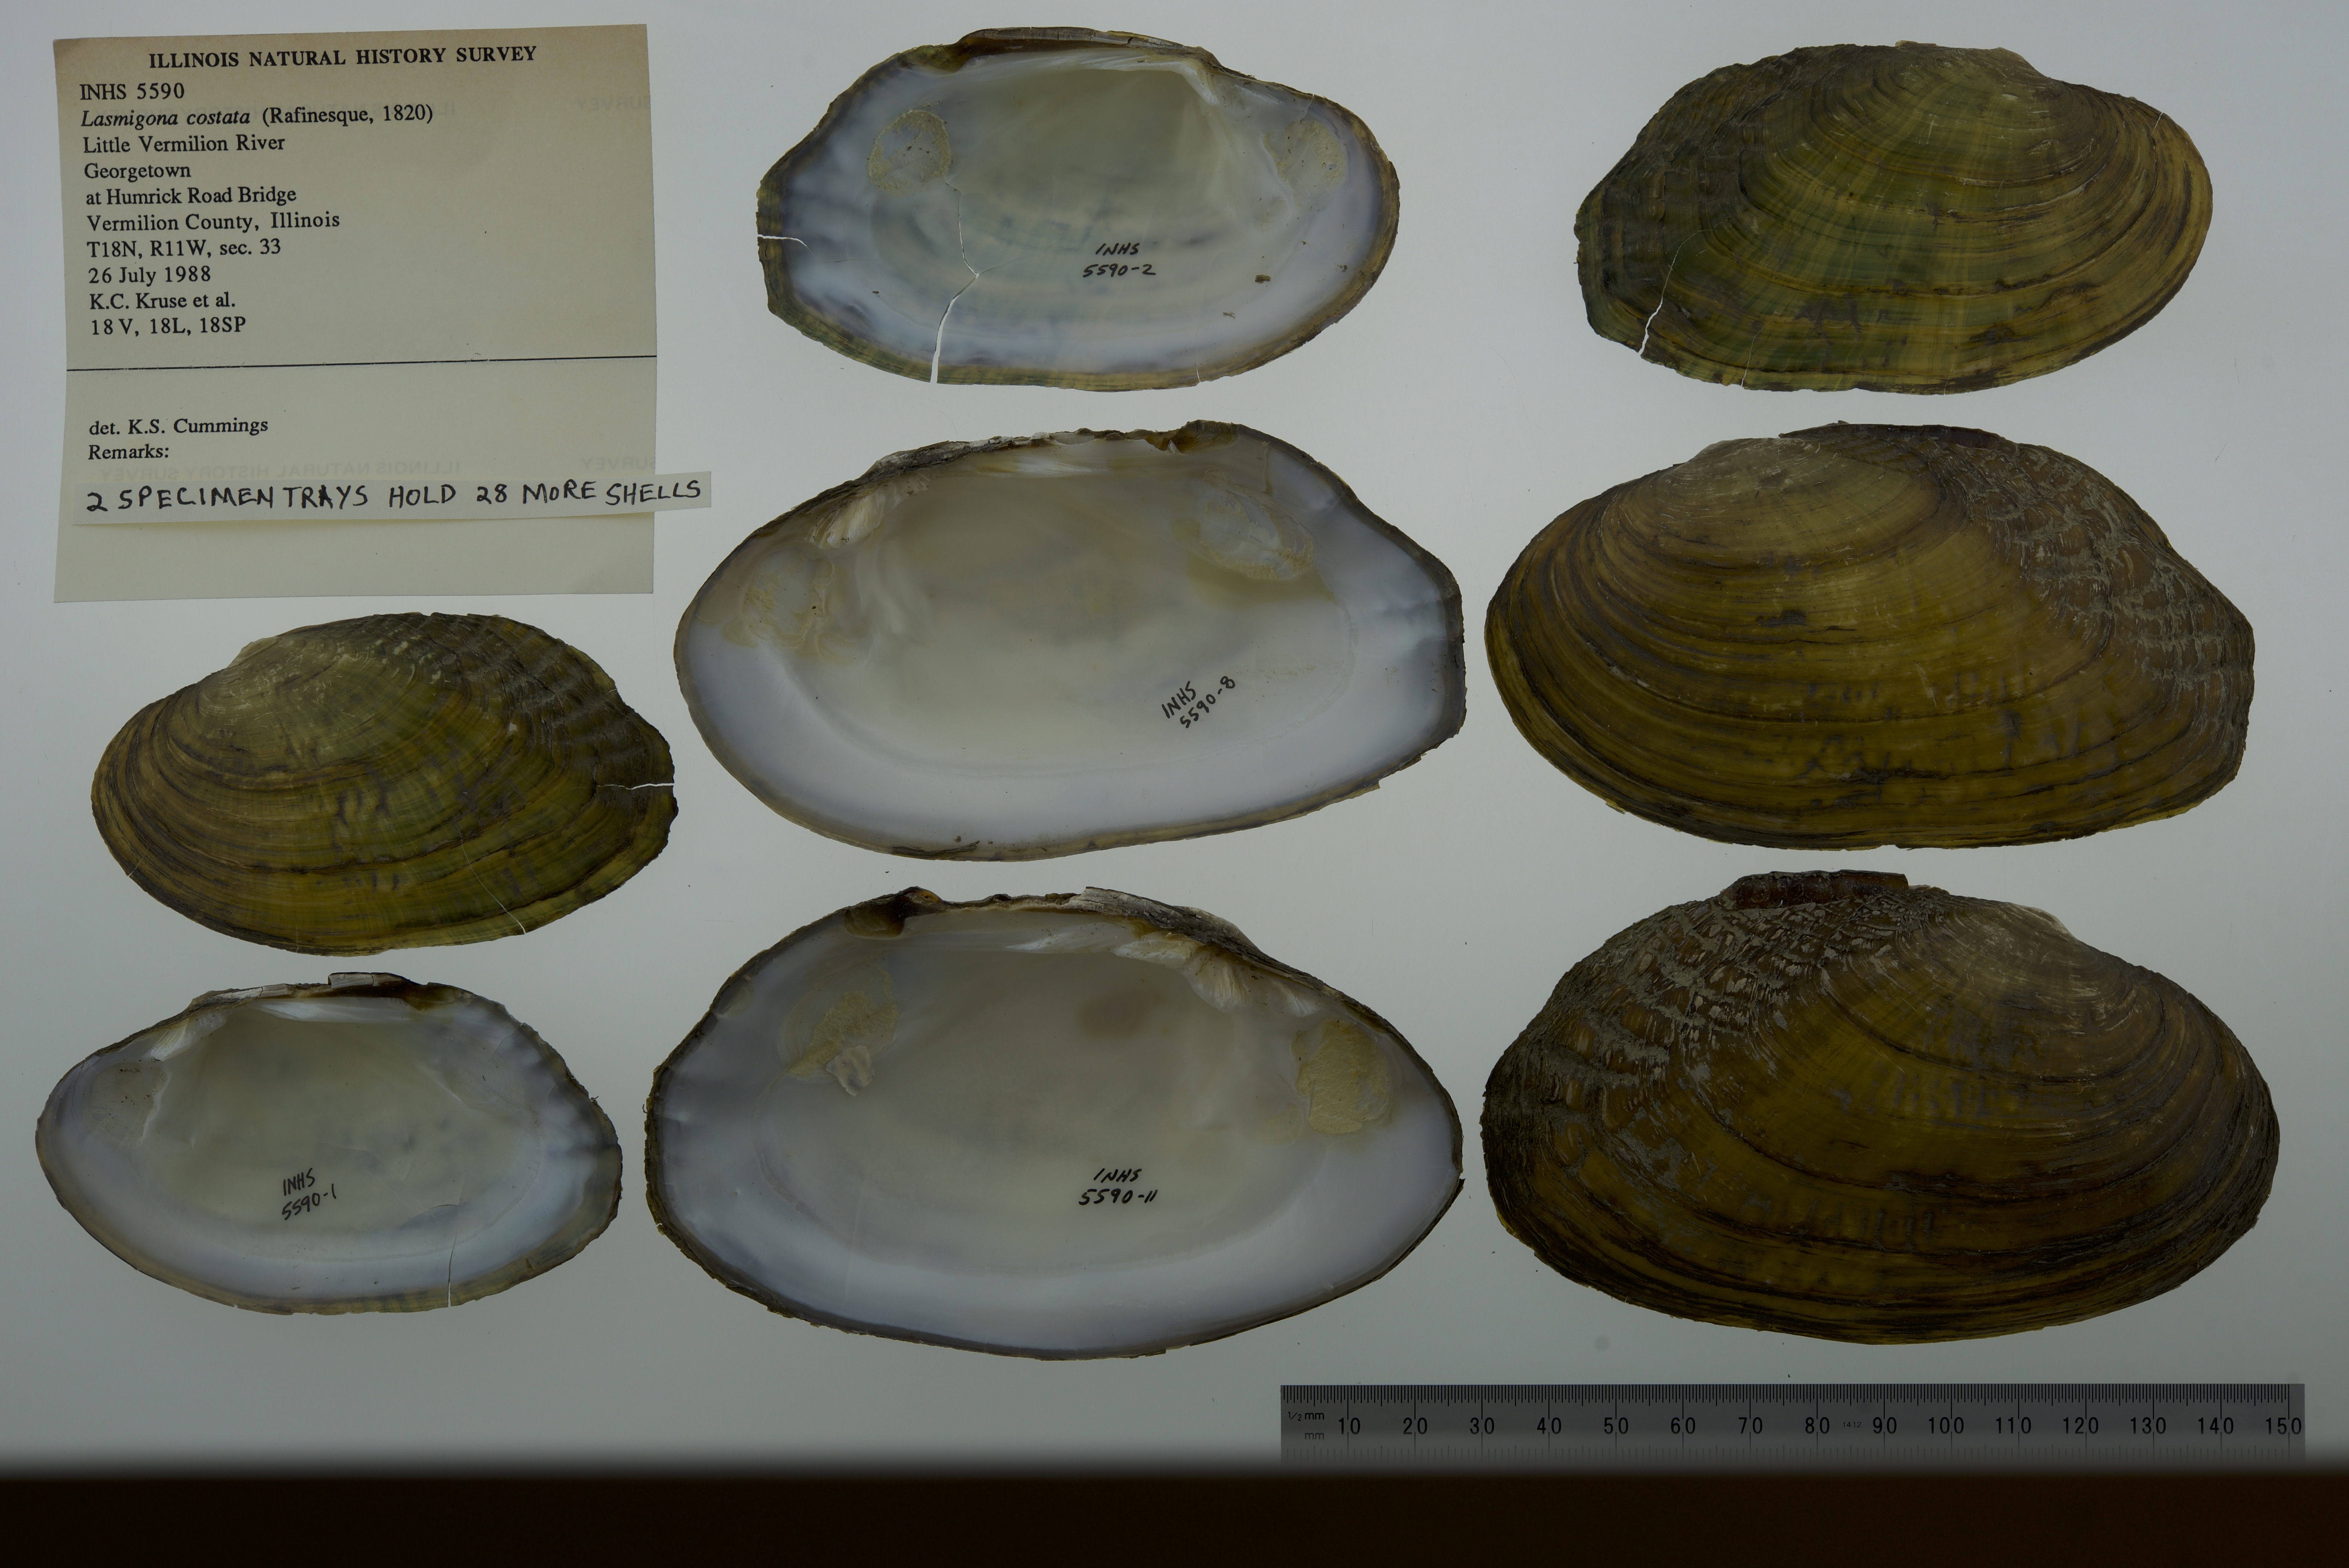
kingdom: Animalia
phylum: Mollusca
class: Bivalvia
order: Unionida
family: Unionidae
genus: Lasmigona
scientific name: Lasmigona costata
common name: Flutedshell
